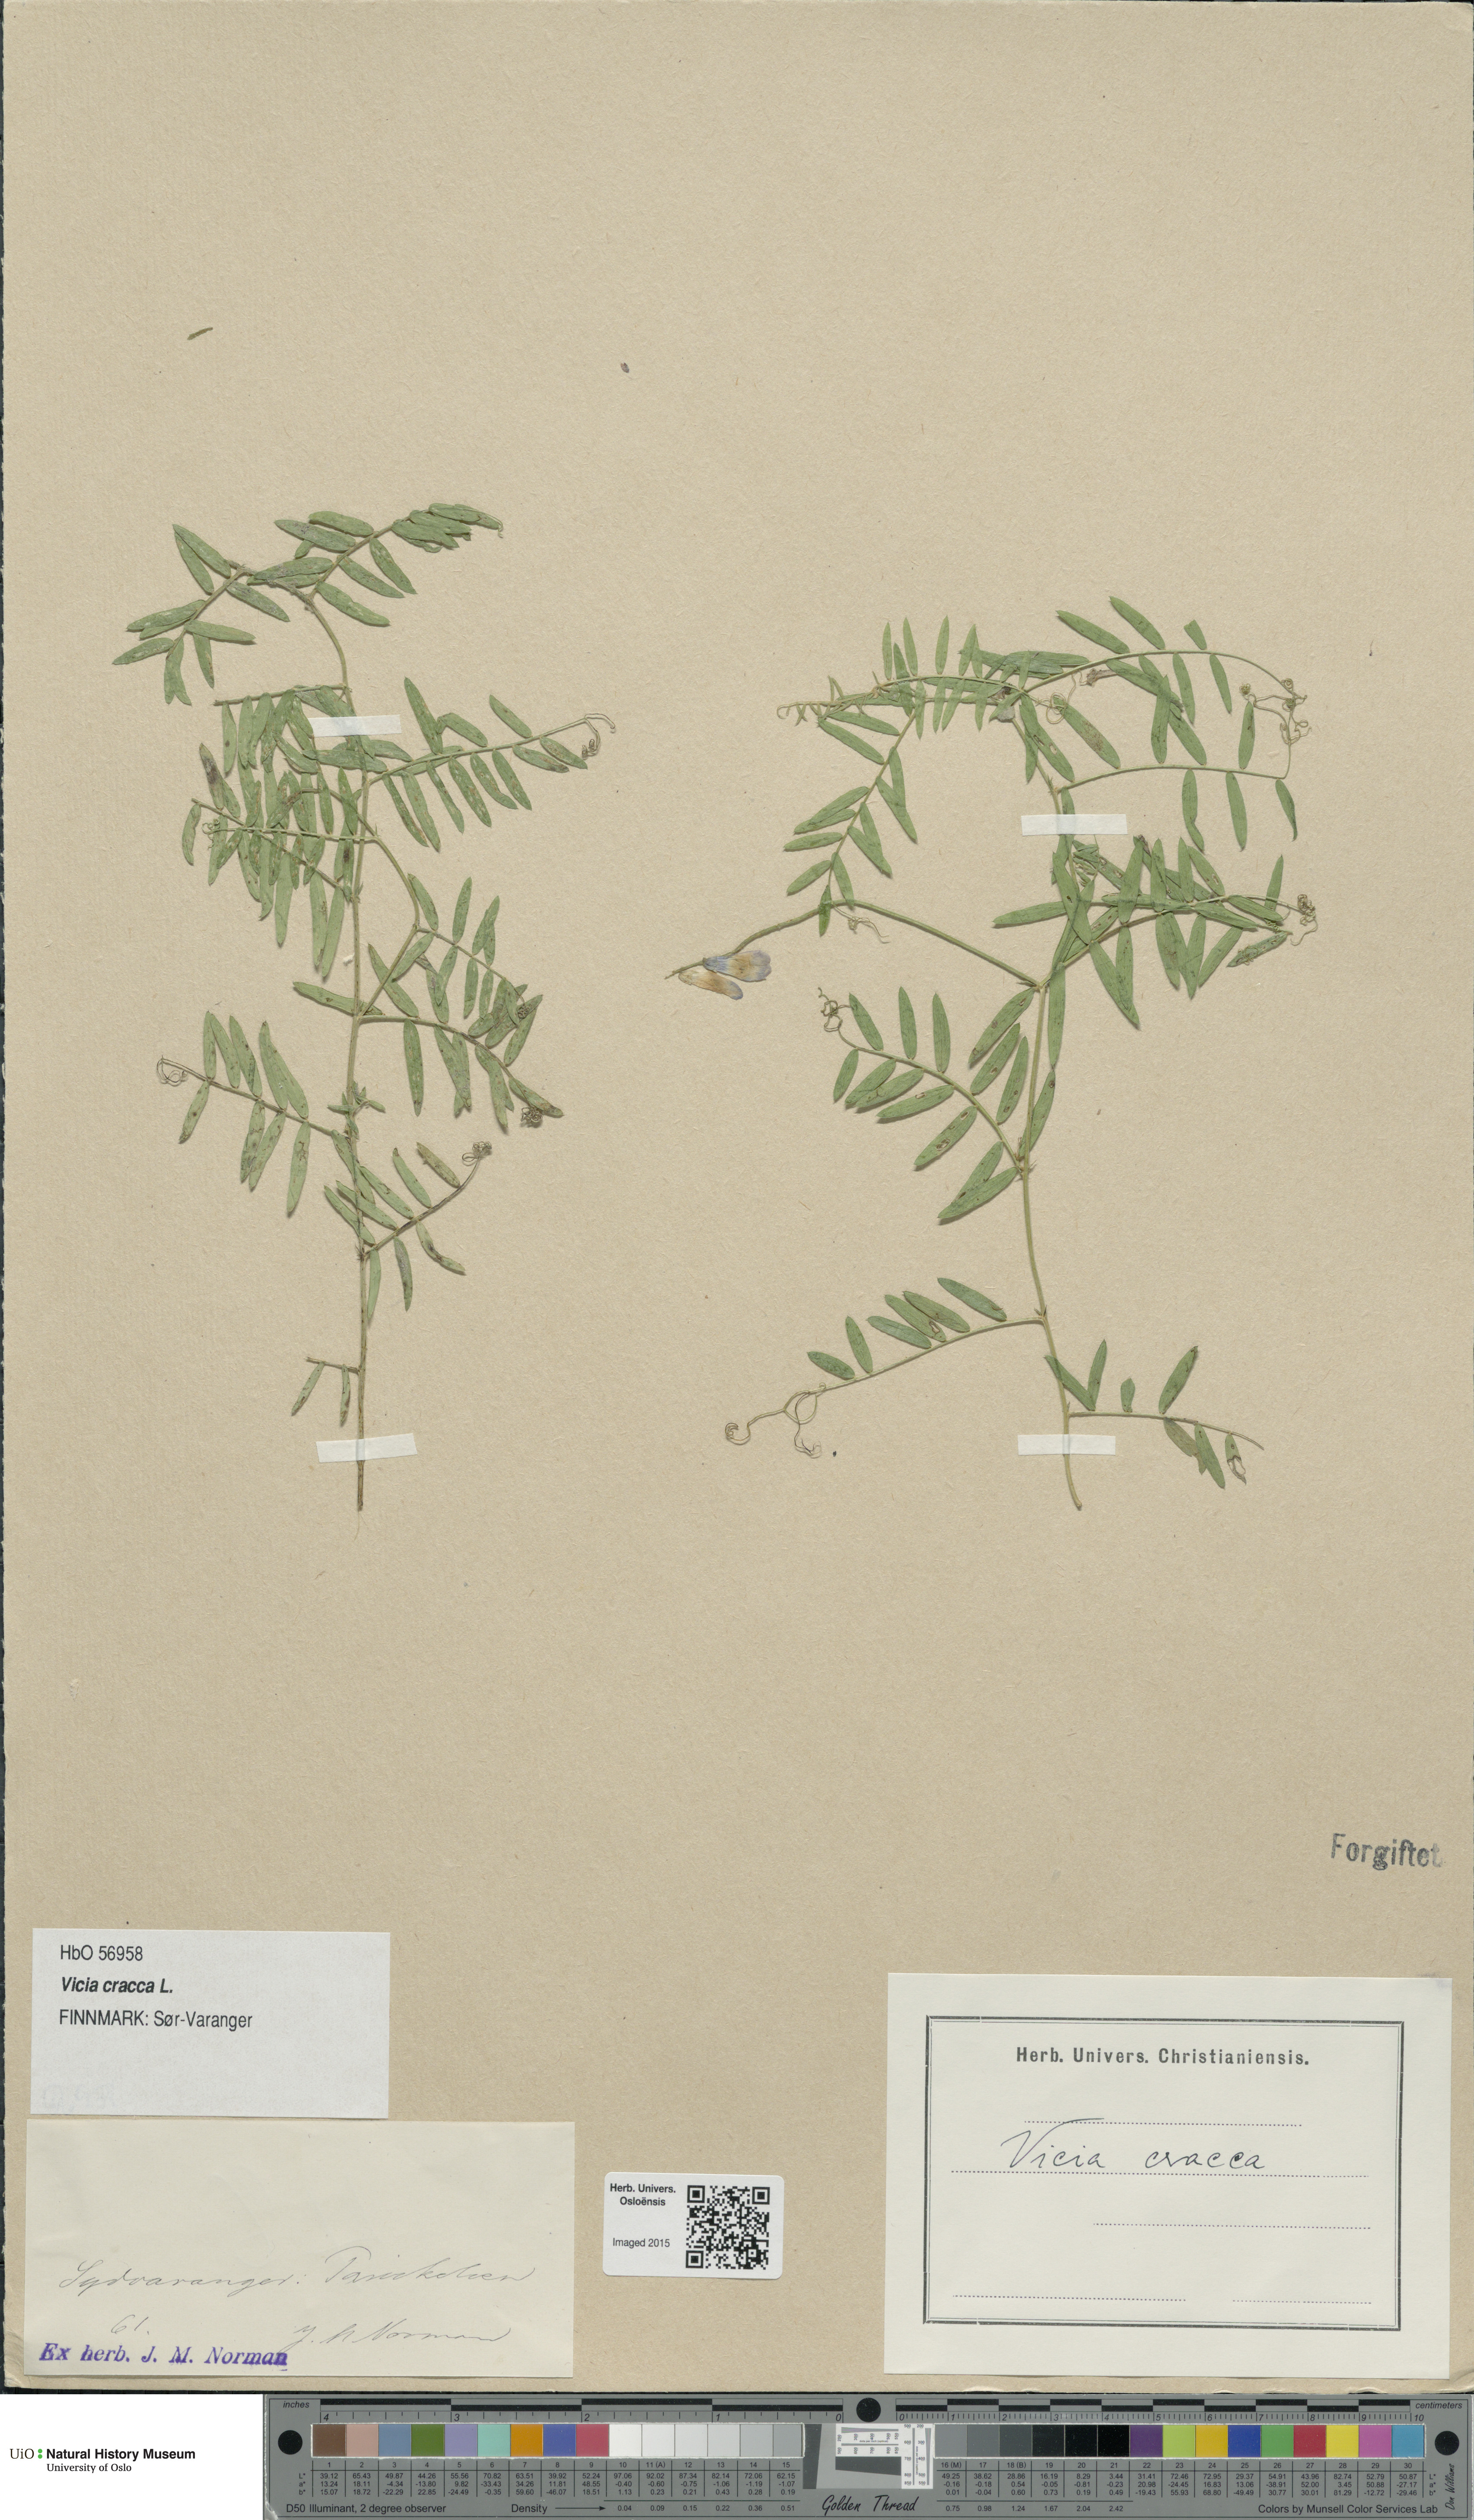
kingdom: Plantae
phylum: Tracheophyta
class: Magnoliopsida
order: Fabales
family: Fabaceae
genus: Vicia
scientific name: Vicia cracca
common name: Bird vetch
